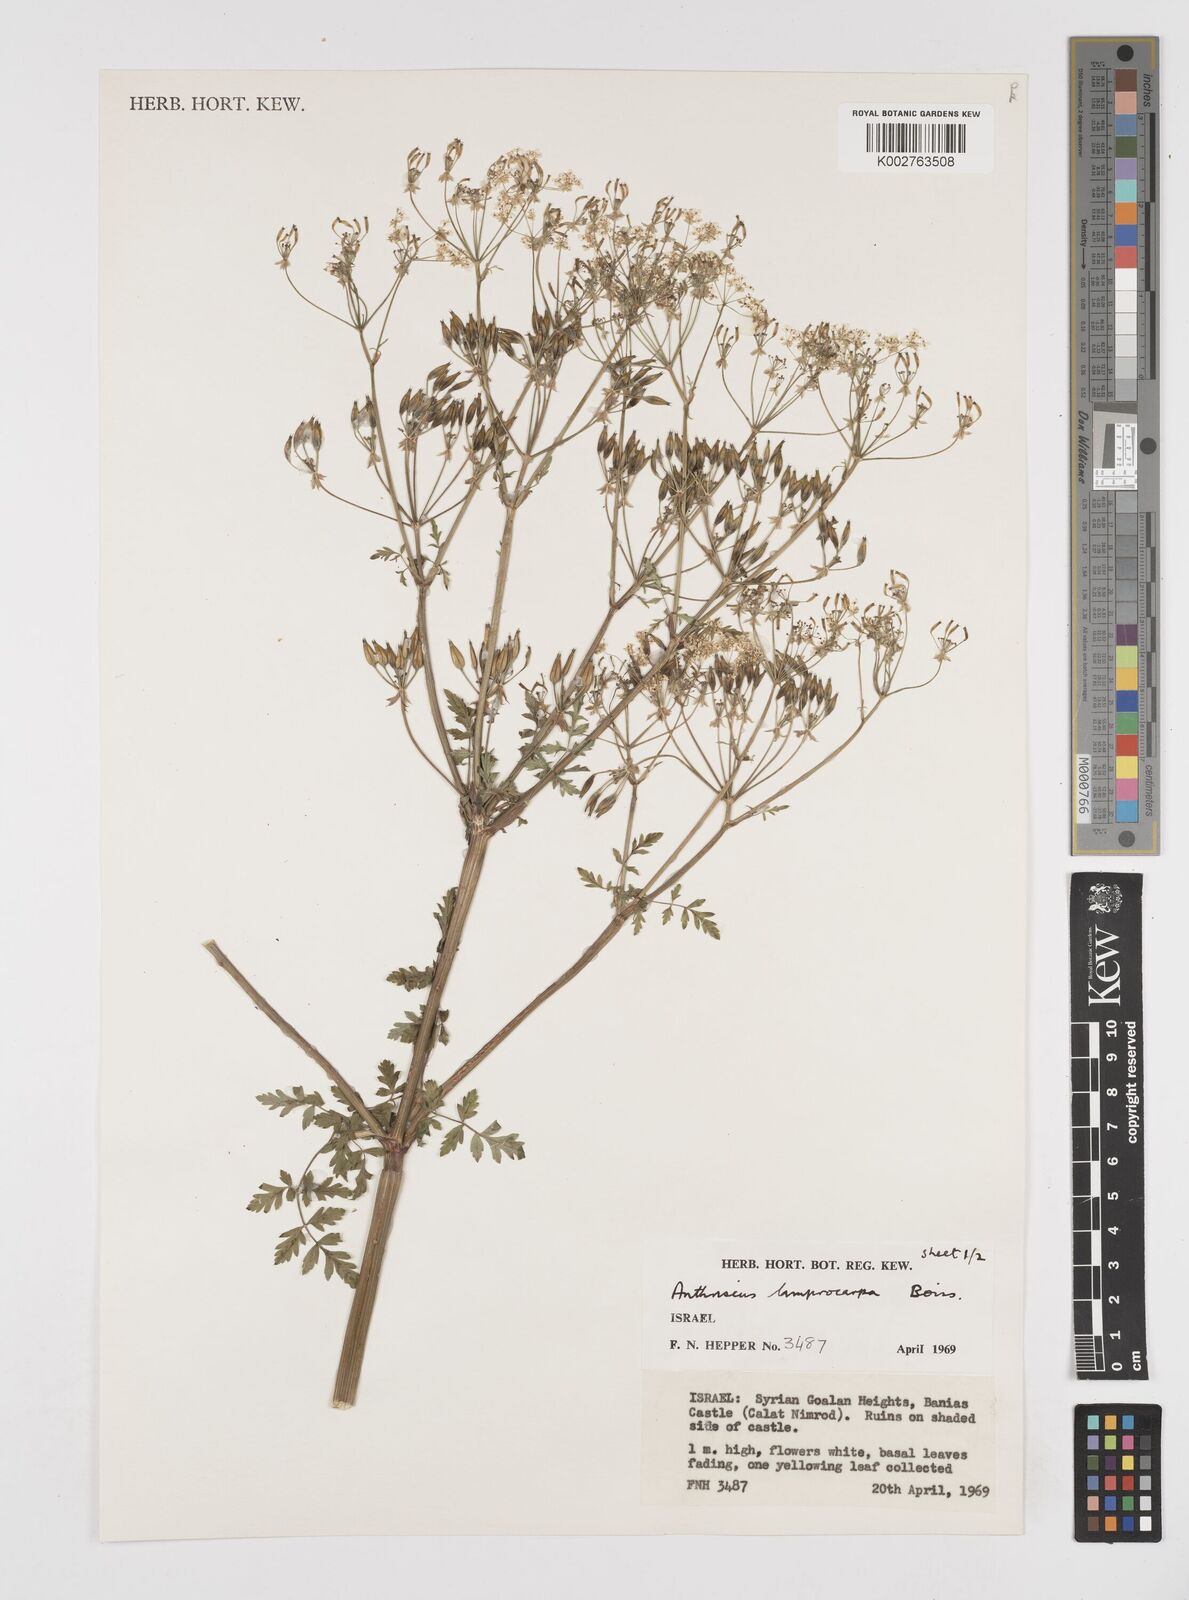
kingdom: Plantae
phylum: Tracheophyta
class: Magnoliopsida
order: Apiales
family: Apiaceae
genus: Anthriscus
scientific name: Anthriscus lamprocarpa
